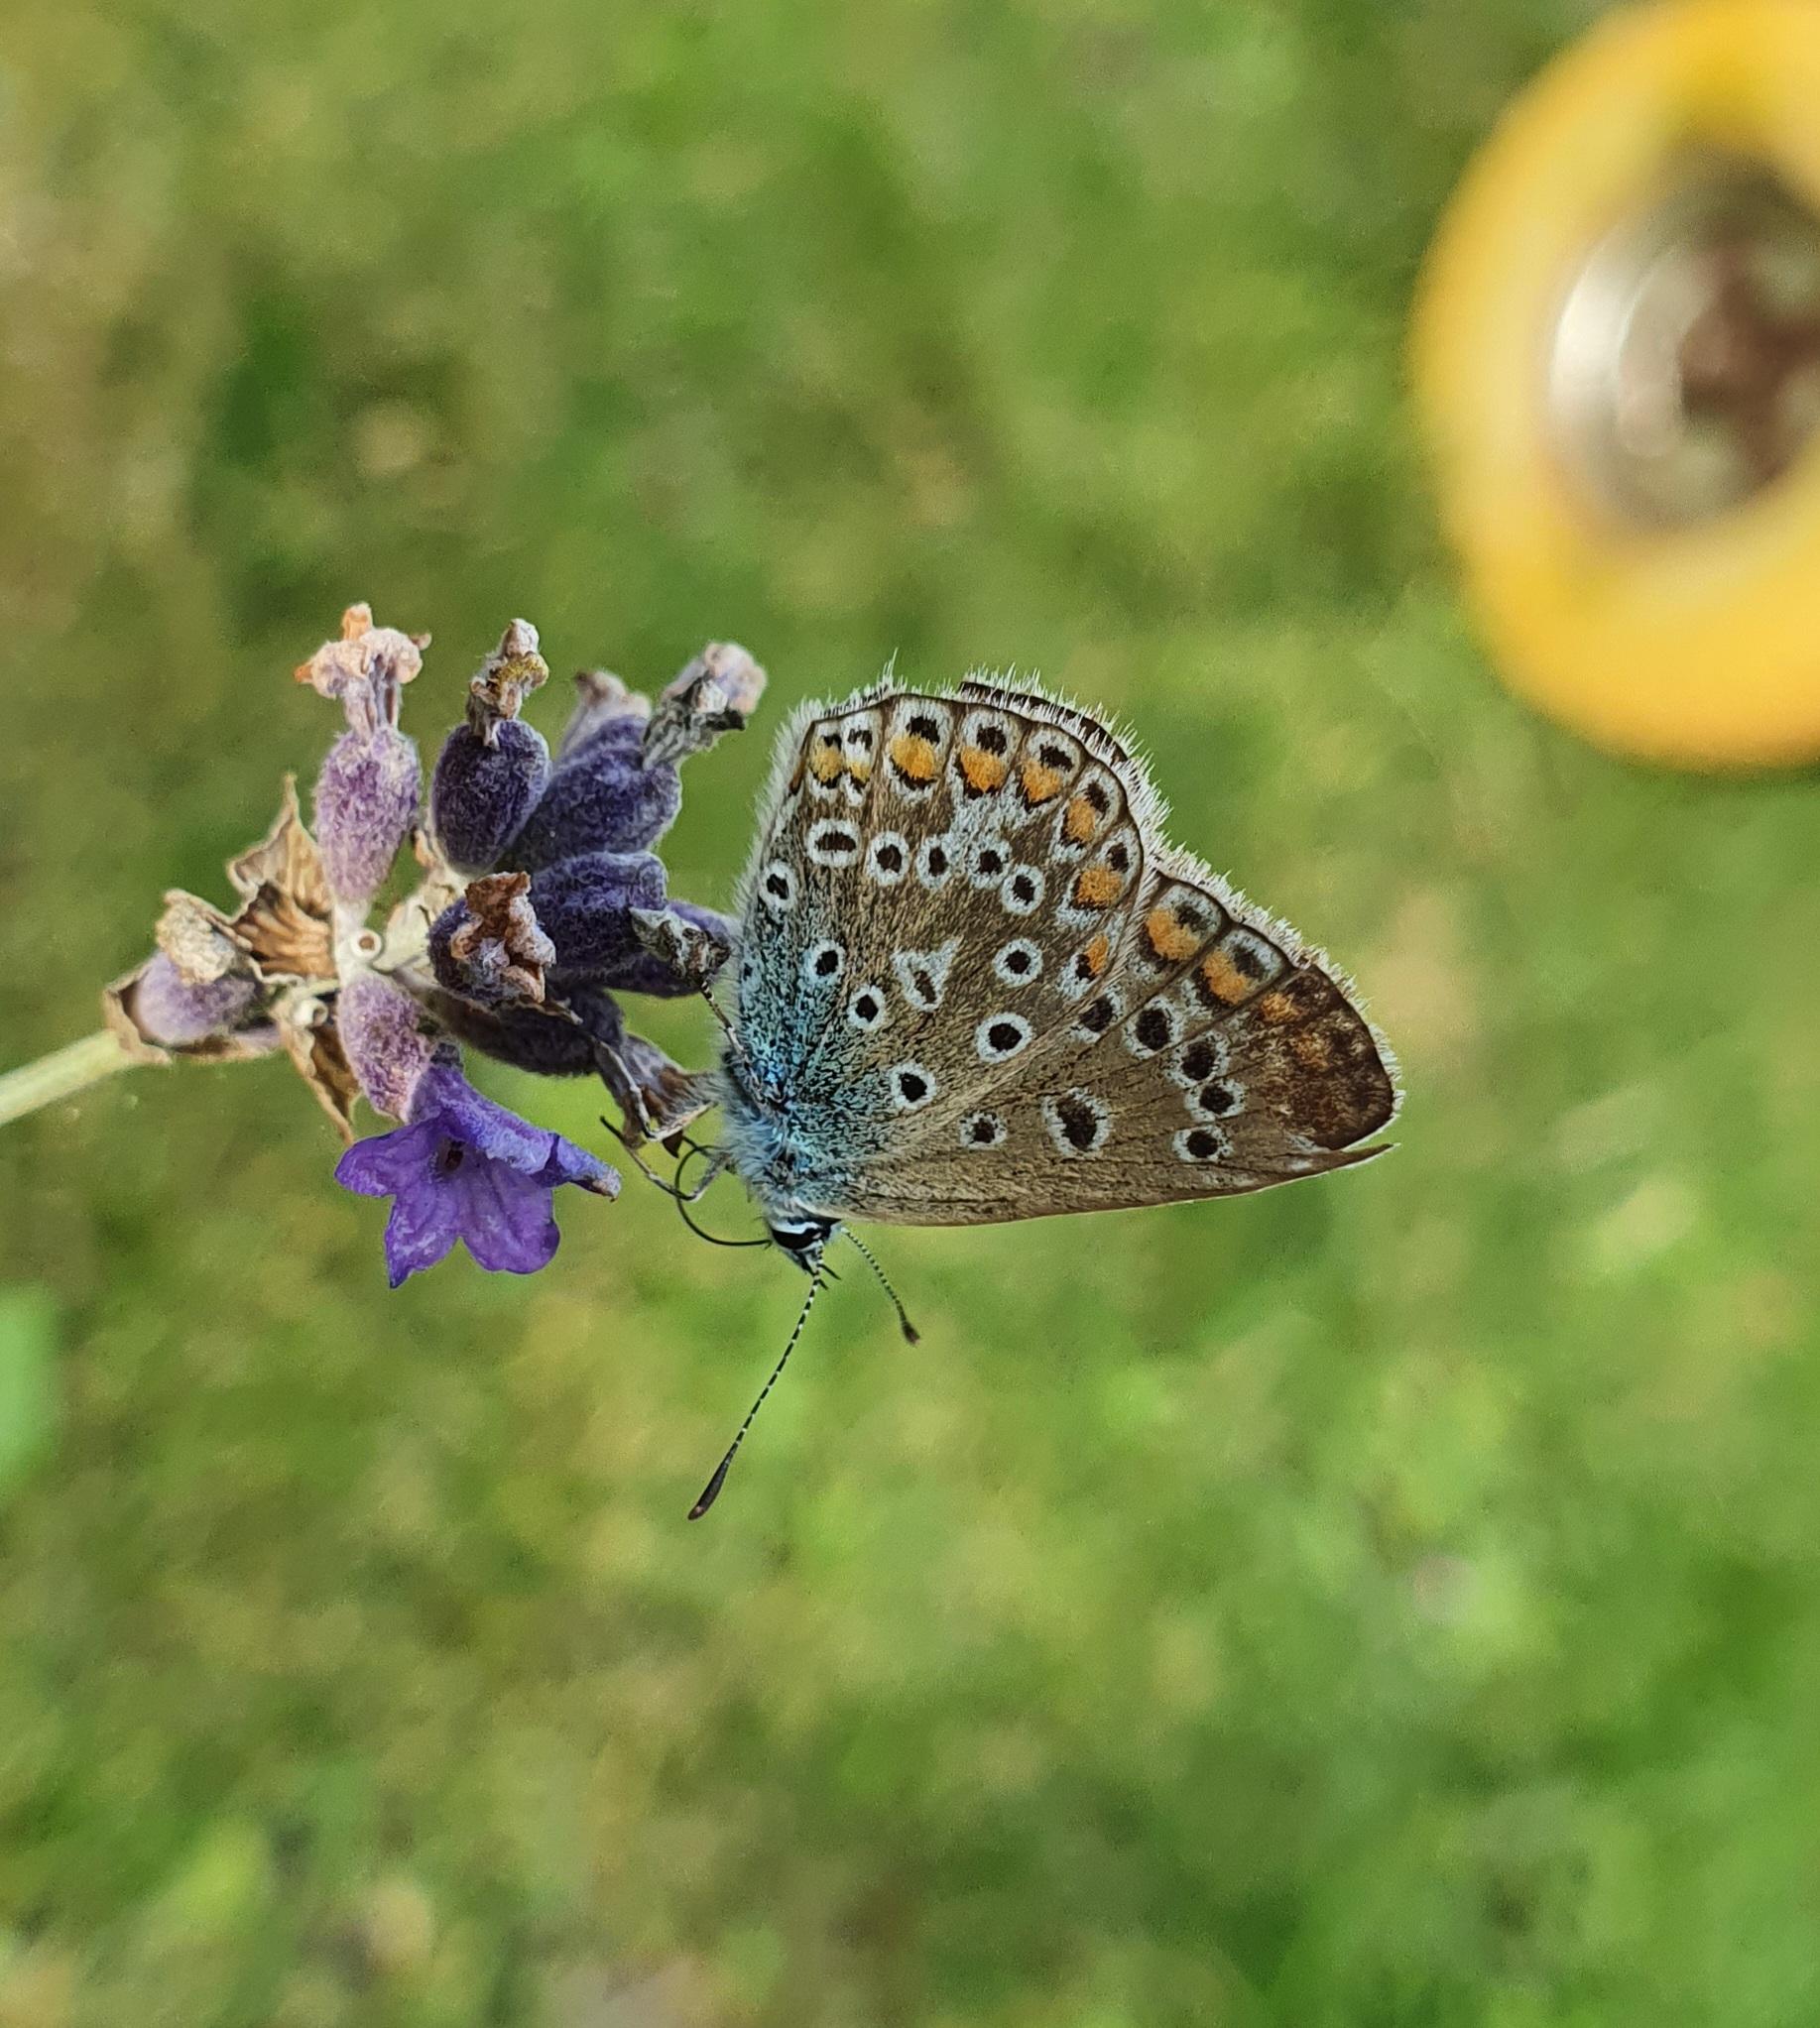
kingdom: Animalia
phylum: Arthropoda
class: Insecta
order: Lepidoptera
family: Lycaenidae
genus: Polyommatus
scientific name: Polyommatus icarus
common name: Almindelig blåfugl
